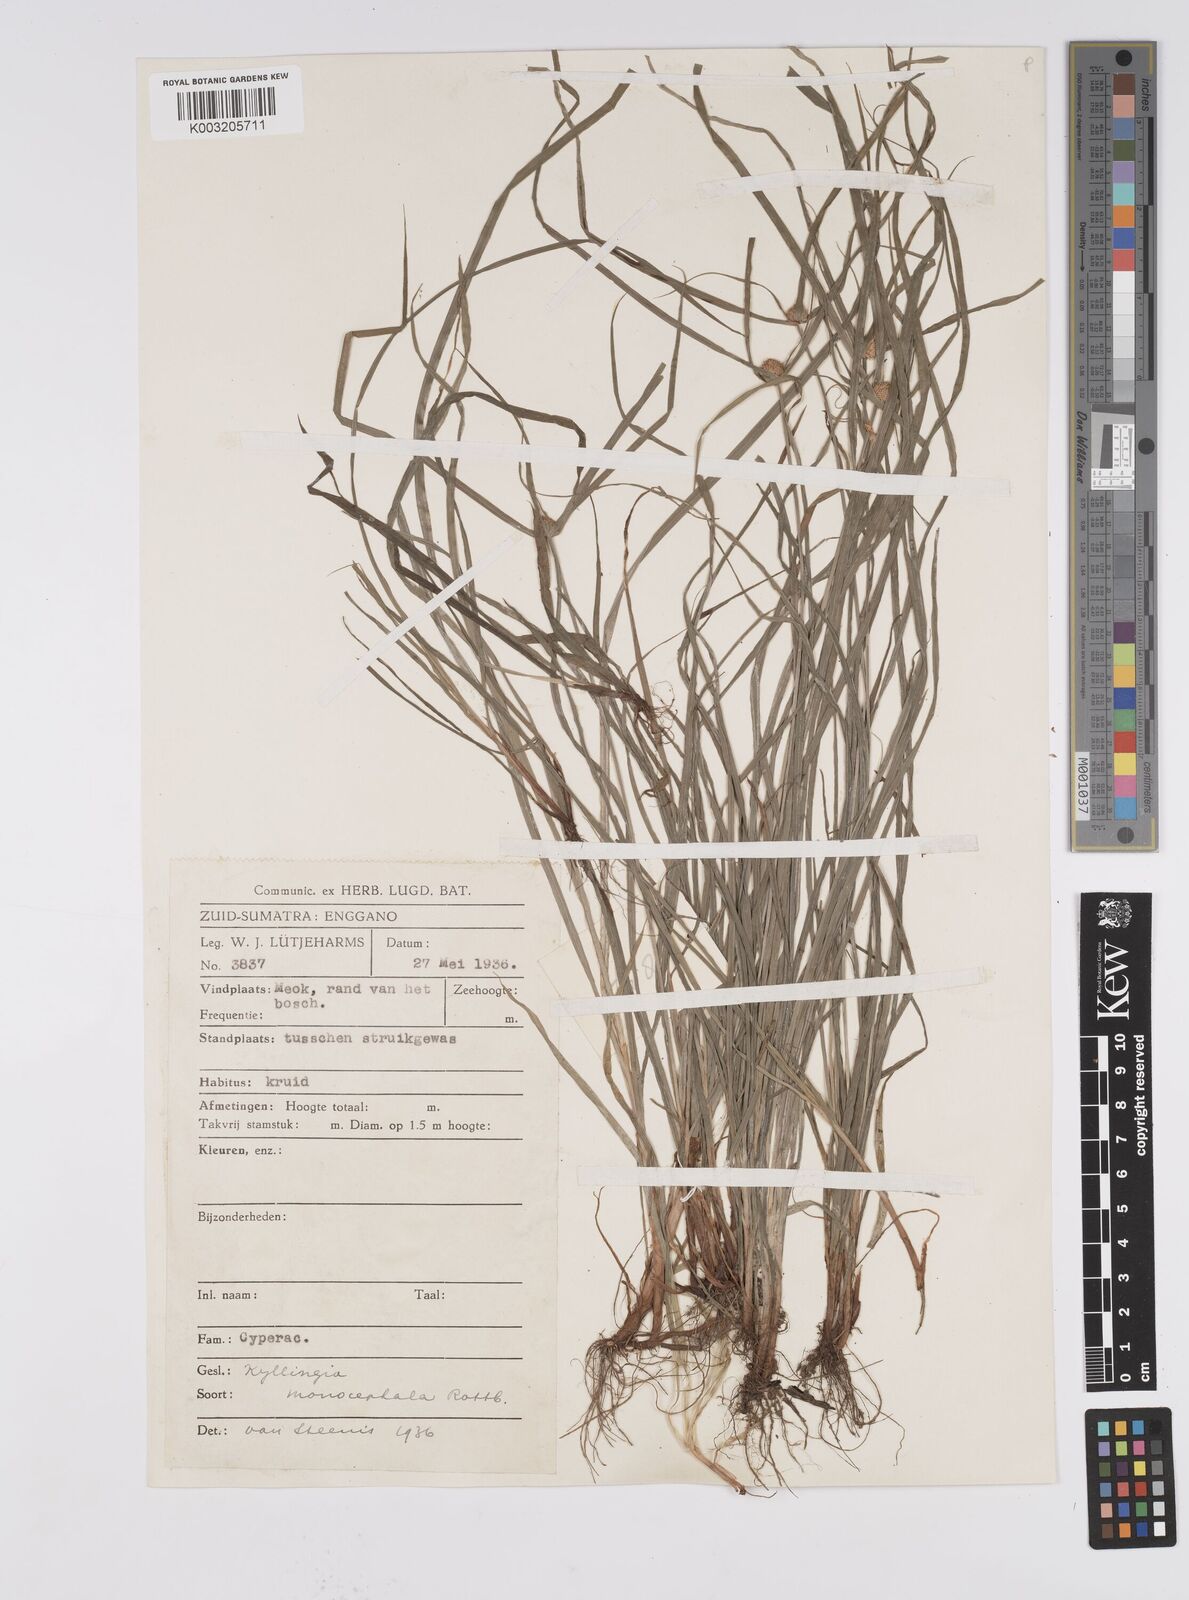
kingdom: Plantae
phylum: Tracheophyta
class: Liliopsida
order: Poales
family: Cyperaceae
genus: Cyperus
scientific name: Cyperus nemoralis
